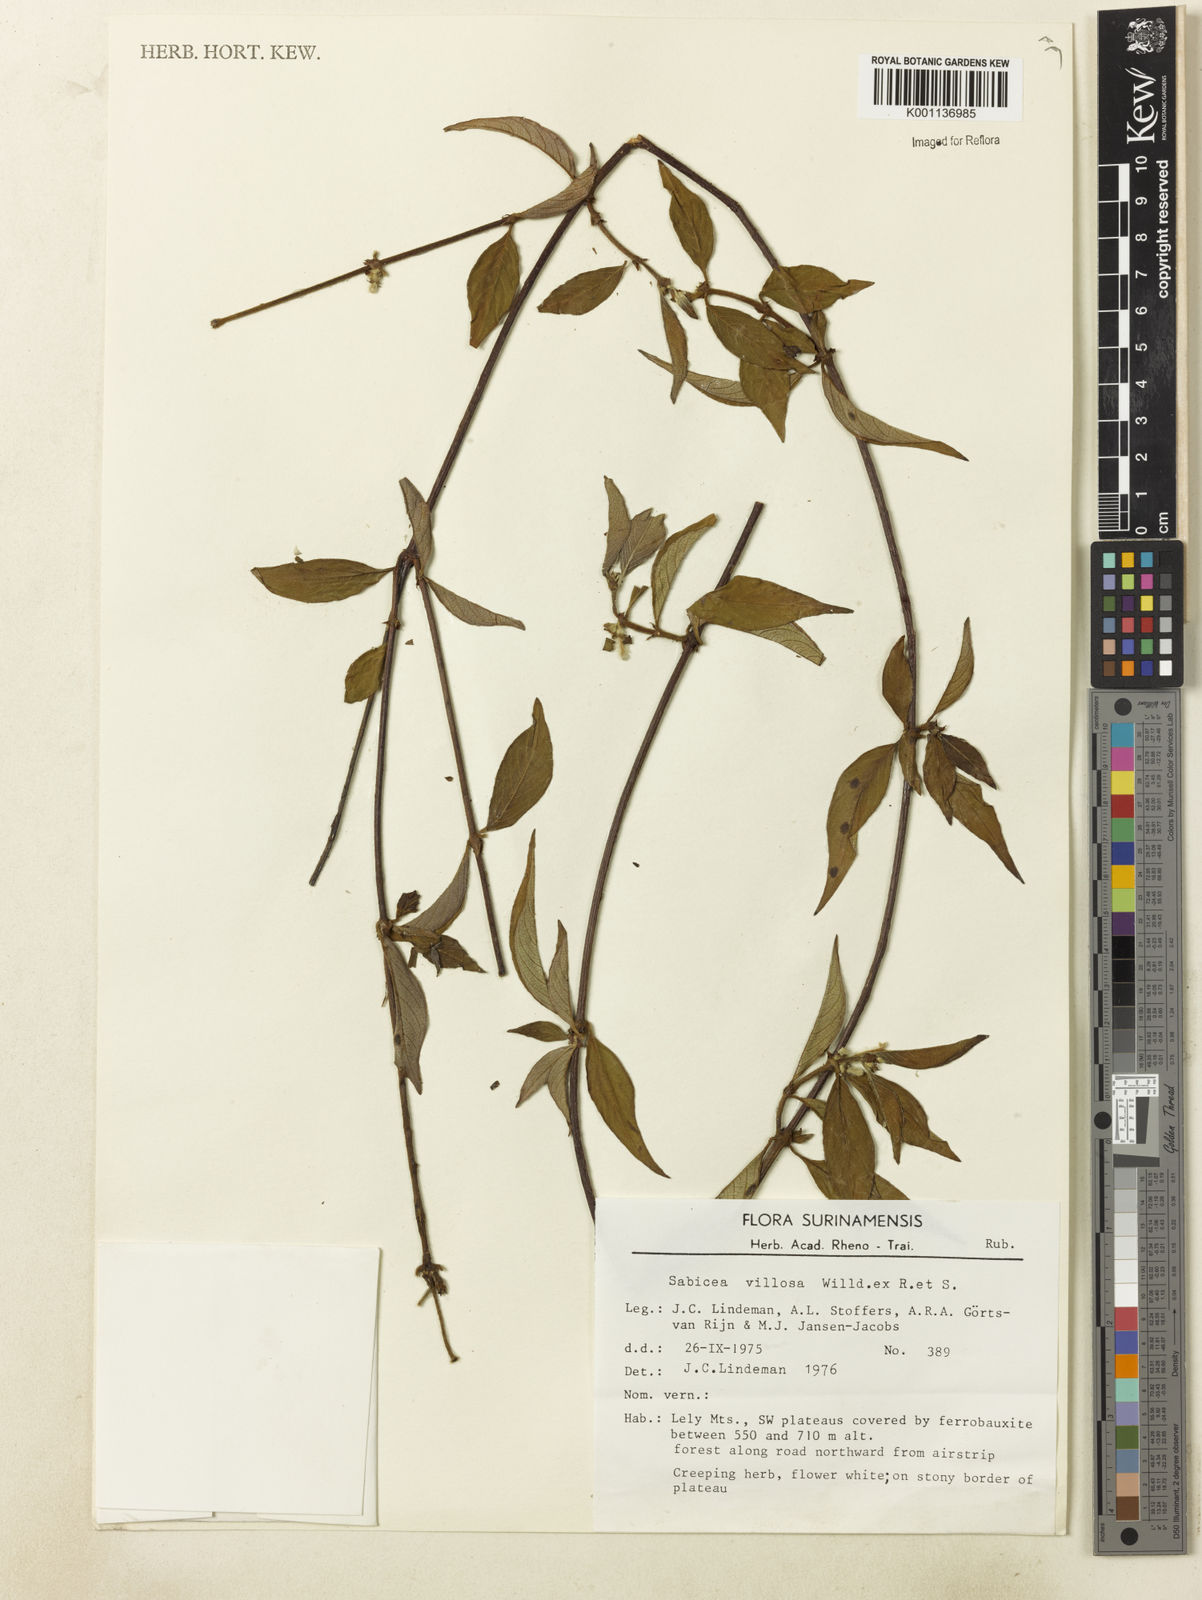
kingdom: Plantae
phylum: Tracheophyta
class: Magnoliopsida
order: Gentianales
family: Rubiaceae
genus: Sabicea
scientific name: Sabicea villosa
